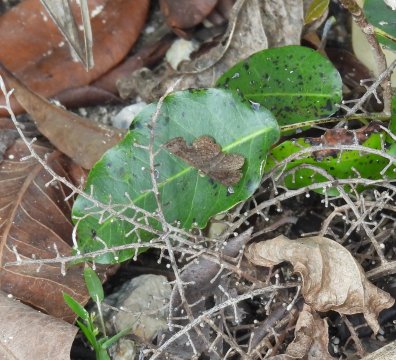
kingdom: Animalia
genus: Calephelis
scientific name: Calephelis nemesis
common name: Fatal Metalmark
